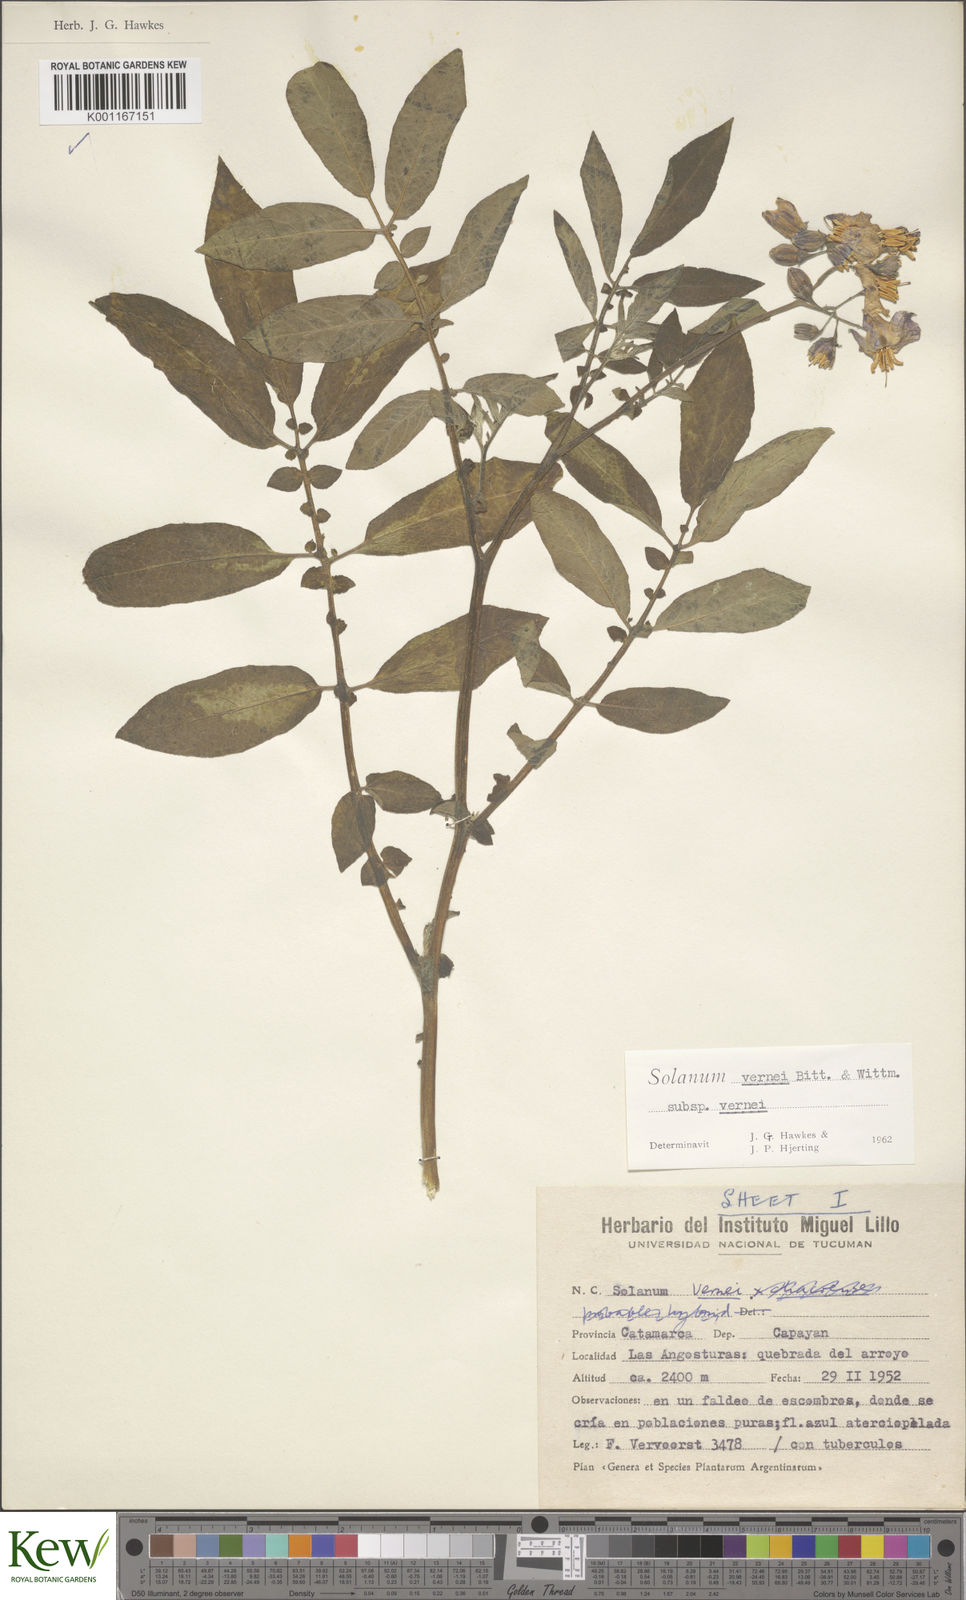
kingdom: Plantae
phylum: Tracheophyta
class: Magnoliopsida
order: Solanales
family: Solanaceae
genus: Solanum
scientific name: Solanum vernei
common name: Purple potato
